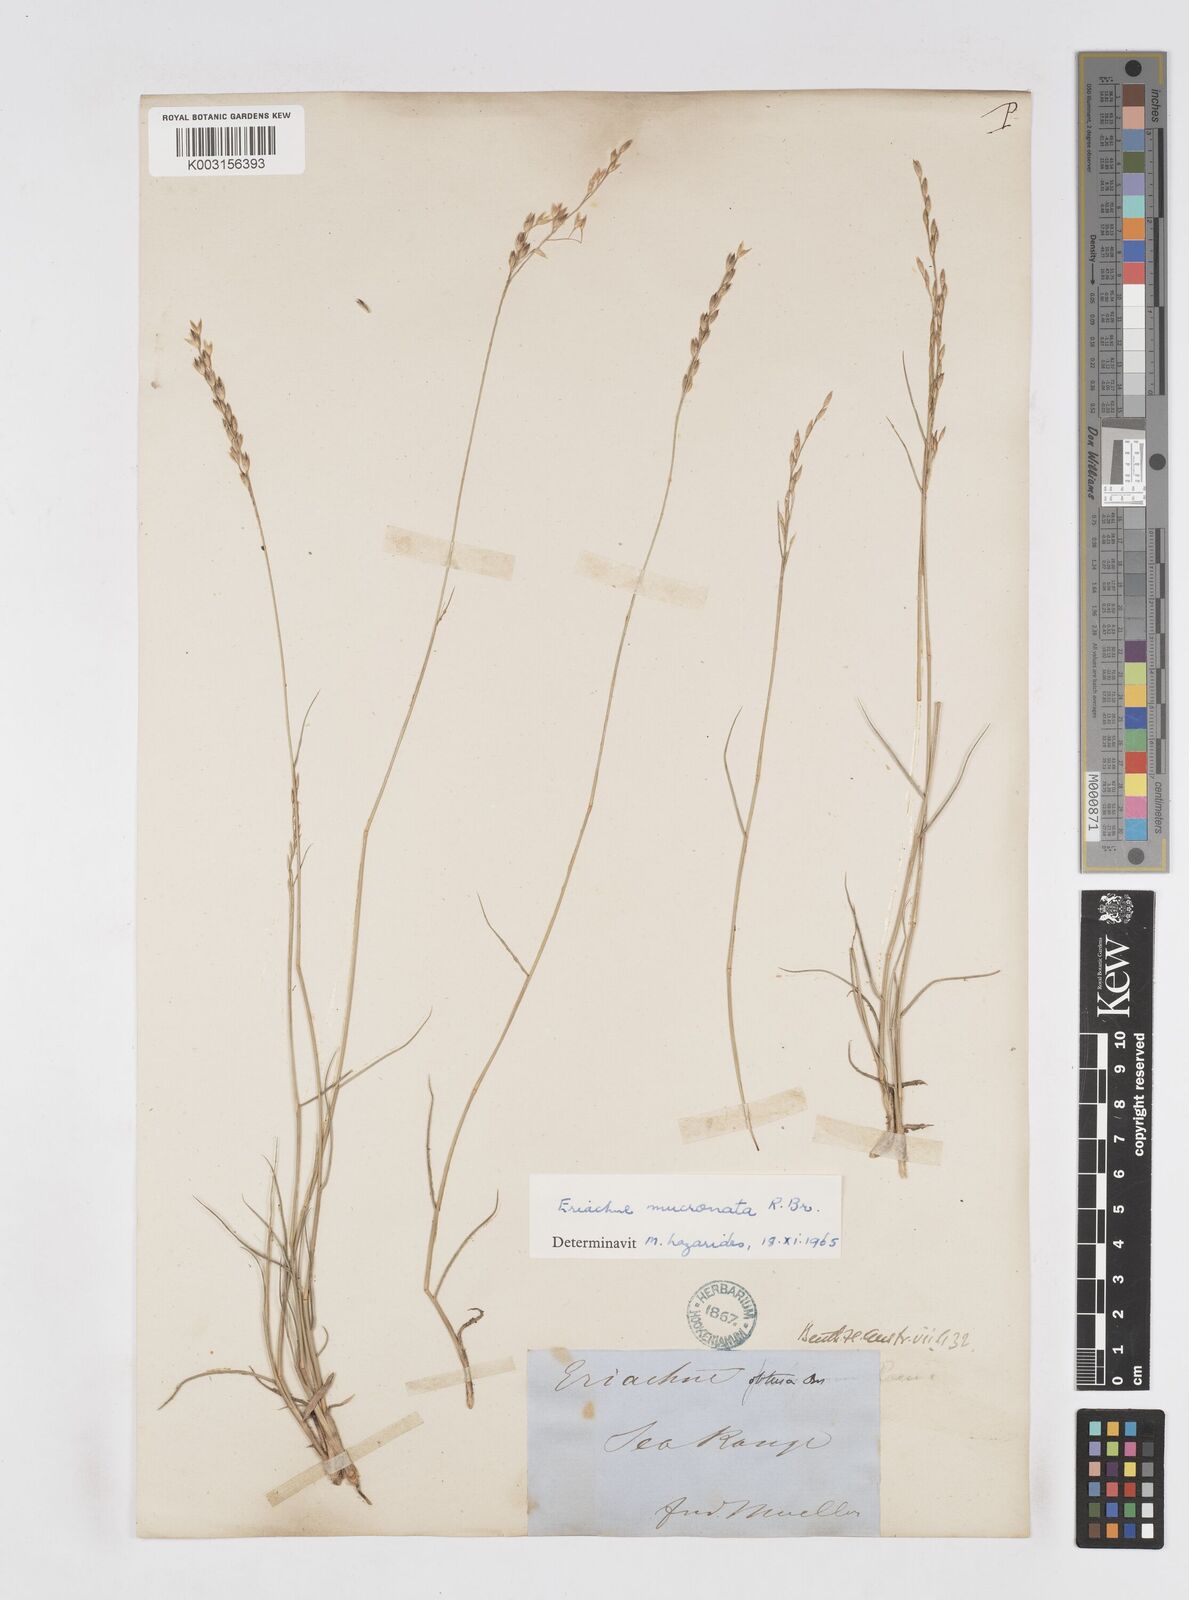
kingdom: Plantae
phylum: Tracheophyta
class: Liliopsida
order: Poales
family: Poaceae
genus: Eriachne
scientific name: Eriachne mucronata
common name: Mountain wanderrie grass
